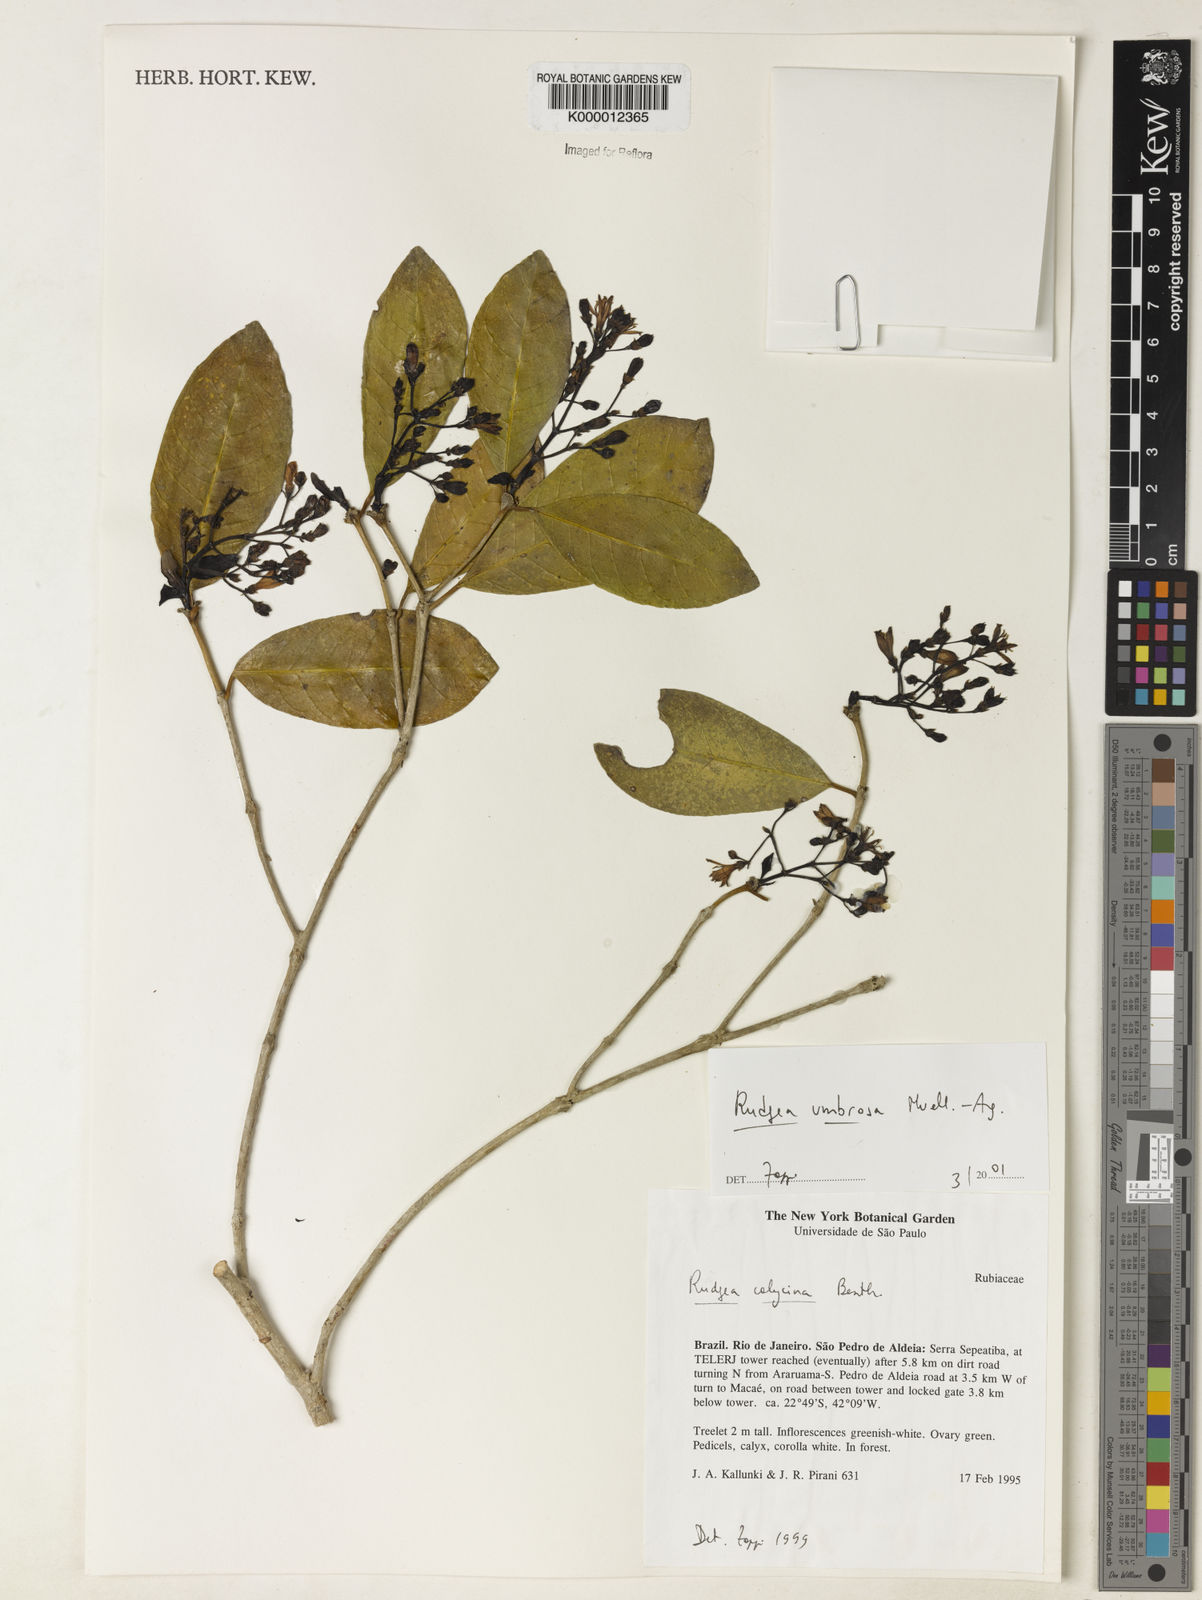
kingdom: Plantae
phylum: Tracheophyta
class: Magnoliopsida
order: Gentianales
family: Rubiaceae
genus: Rudgea
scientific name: Rudgea umbrosa
